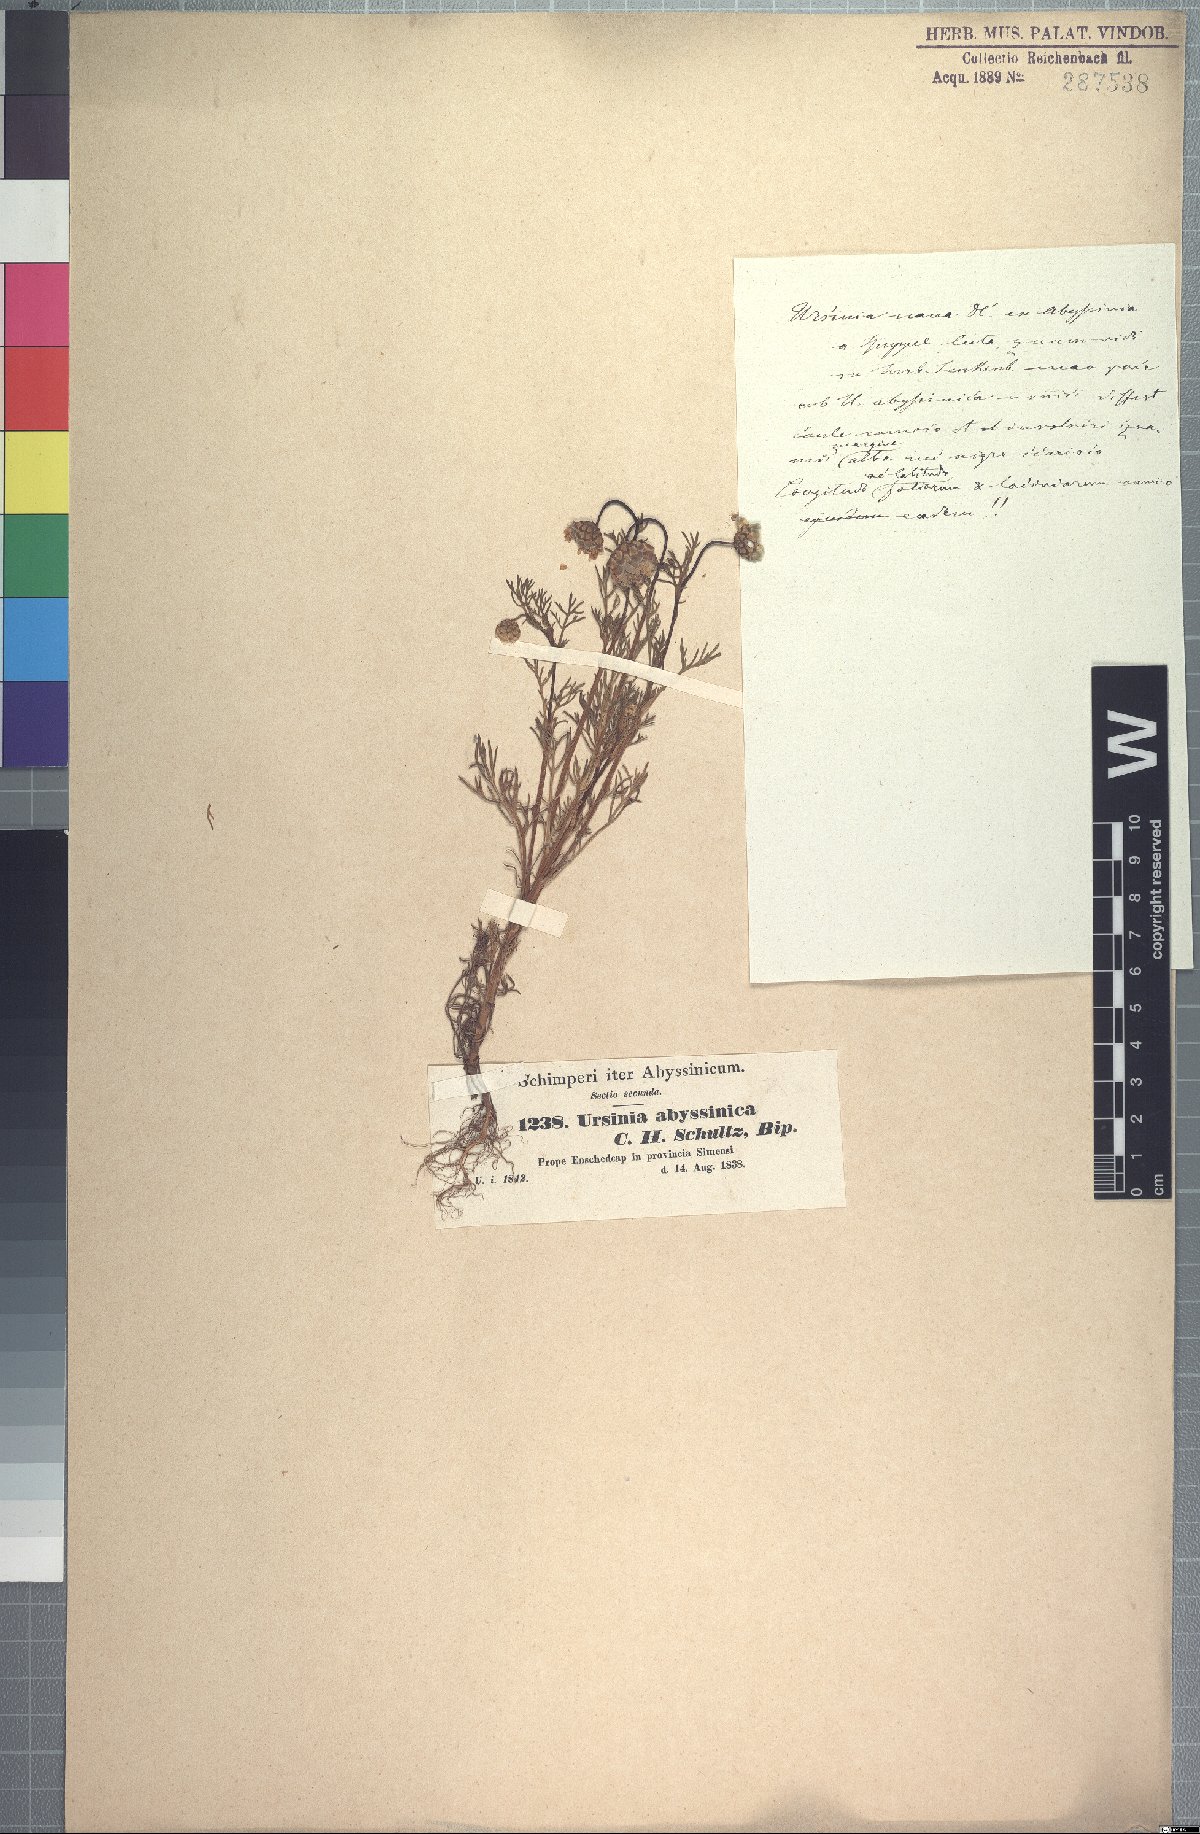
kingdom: Plantae
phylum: Tracheophyta
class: Magnoliopsida
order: Asterales
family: Asteraceae
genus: Ursinia
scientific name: Ursinia nana
